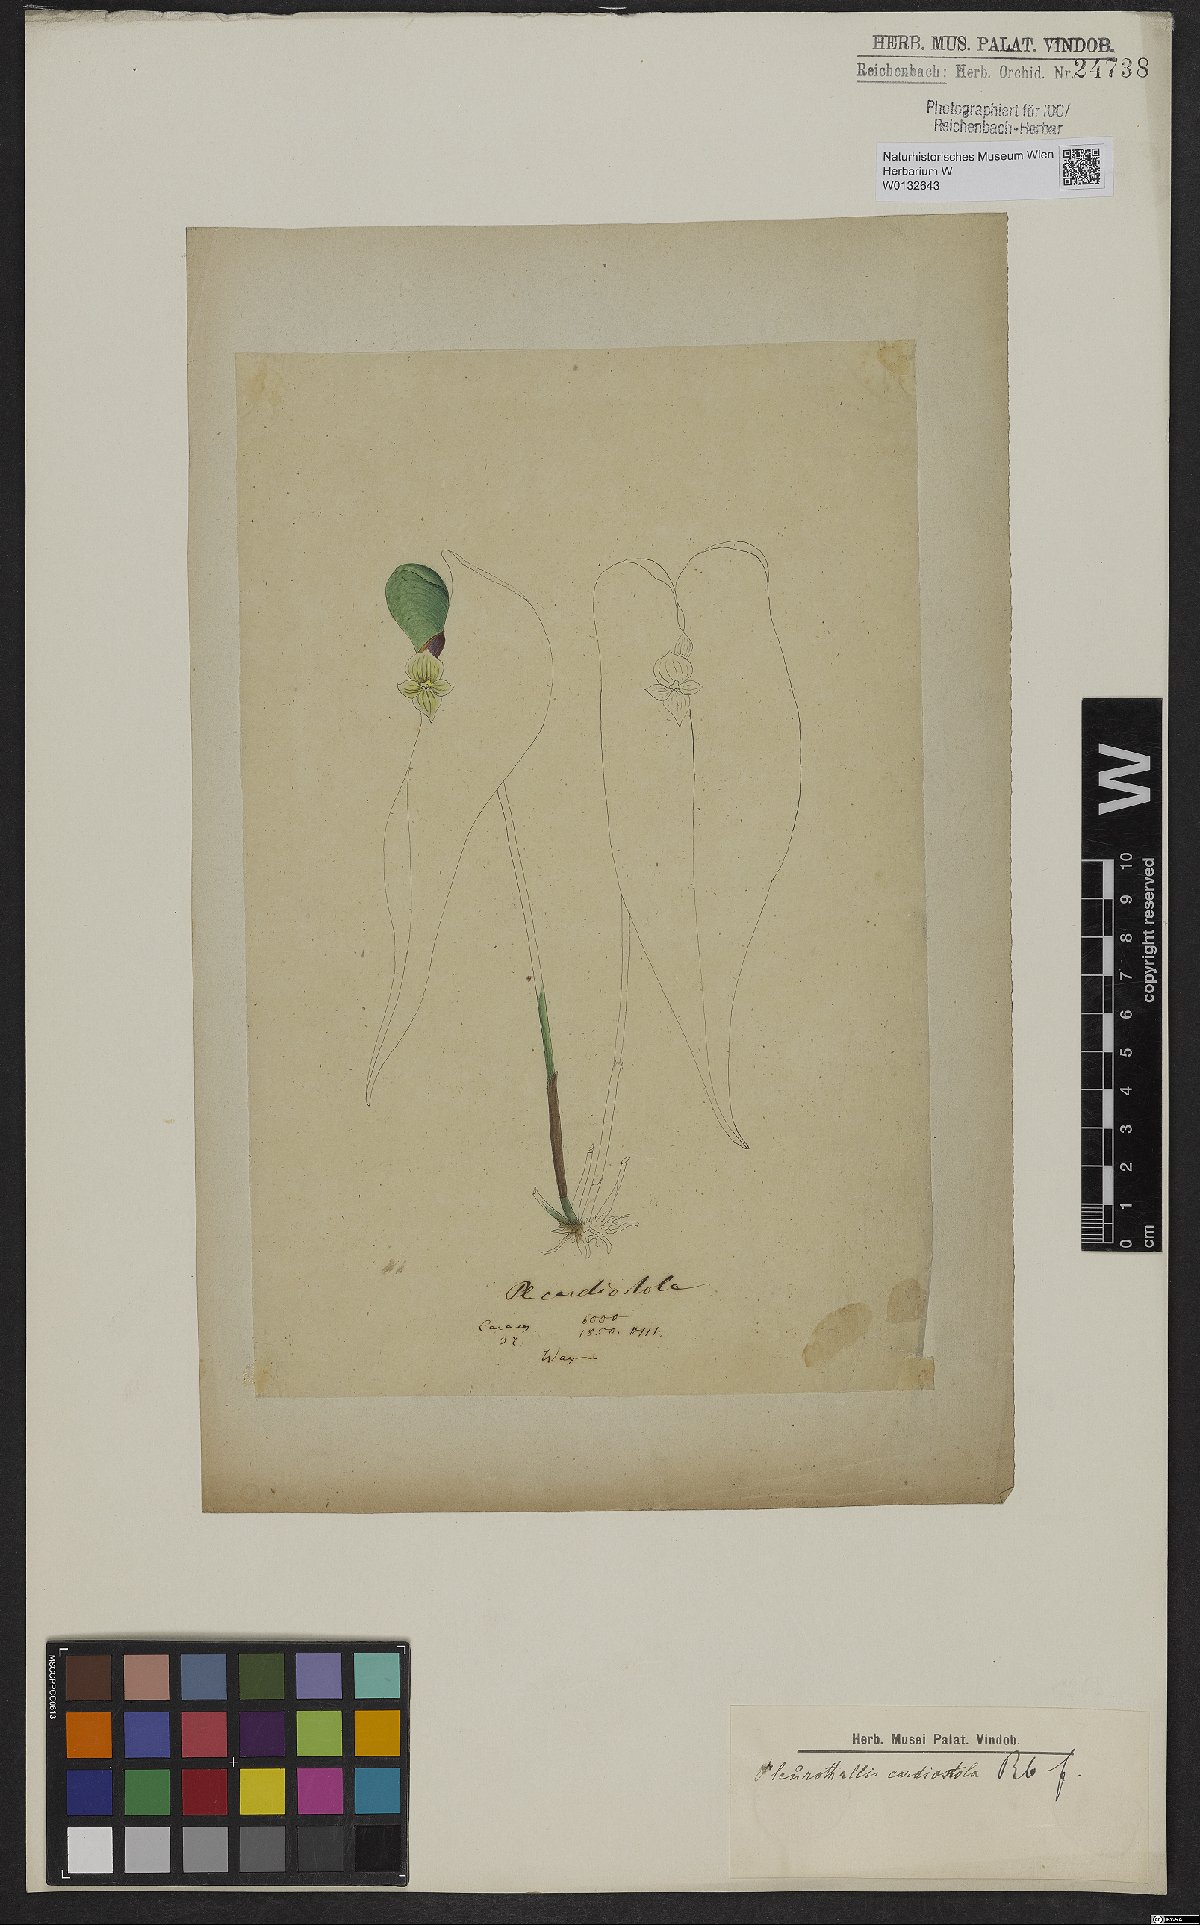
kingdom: Plantae
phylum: Tracheophyta
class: Liliopsida
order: Asparagales
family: Orchidaceae
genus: Pleurothallis
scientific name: Pleurothallis cardiostola
